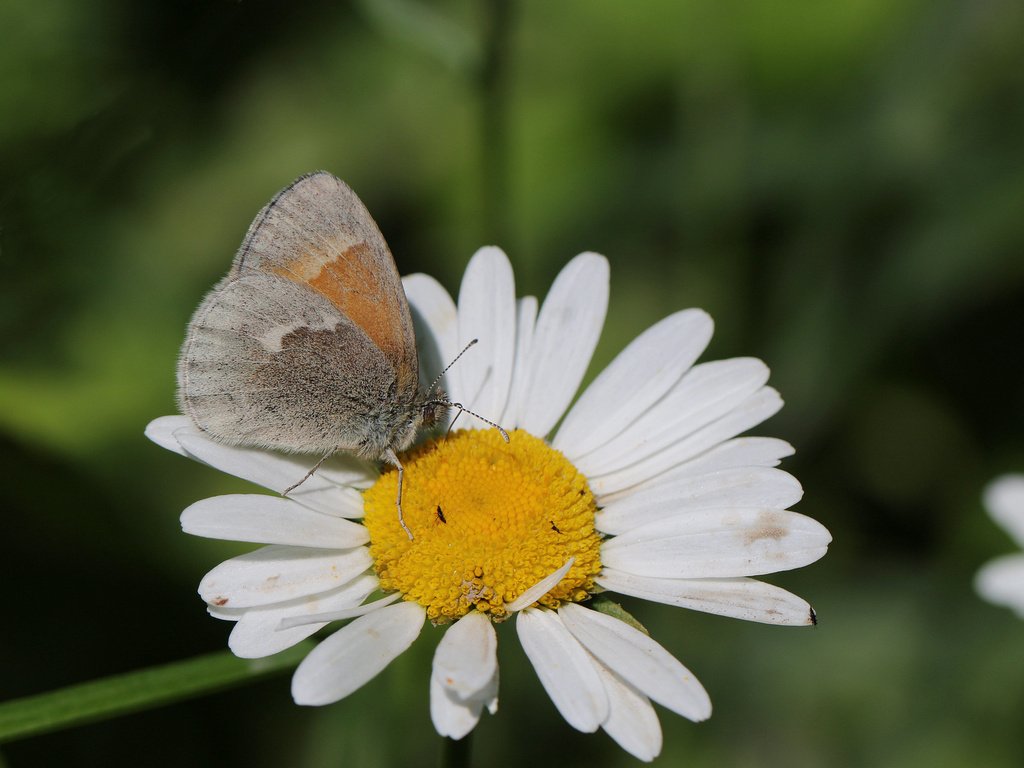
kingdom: Animalia
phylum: Arthropoda
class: Insecta
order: Lepidoptera
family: Nymphalidae
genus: Coenonympha
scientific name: Coenonympha tullia
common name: Large Heath
